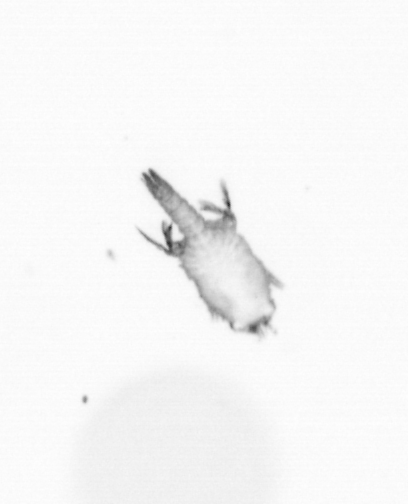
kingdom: Animalia
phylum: Annelida
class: Polychaeta
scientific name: Polychaeta
